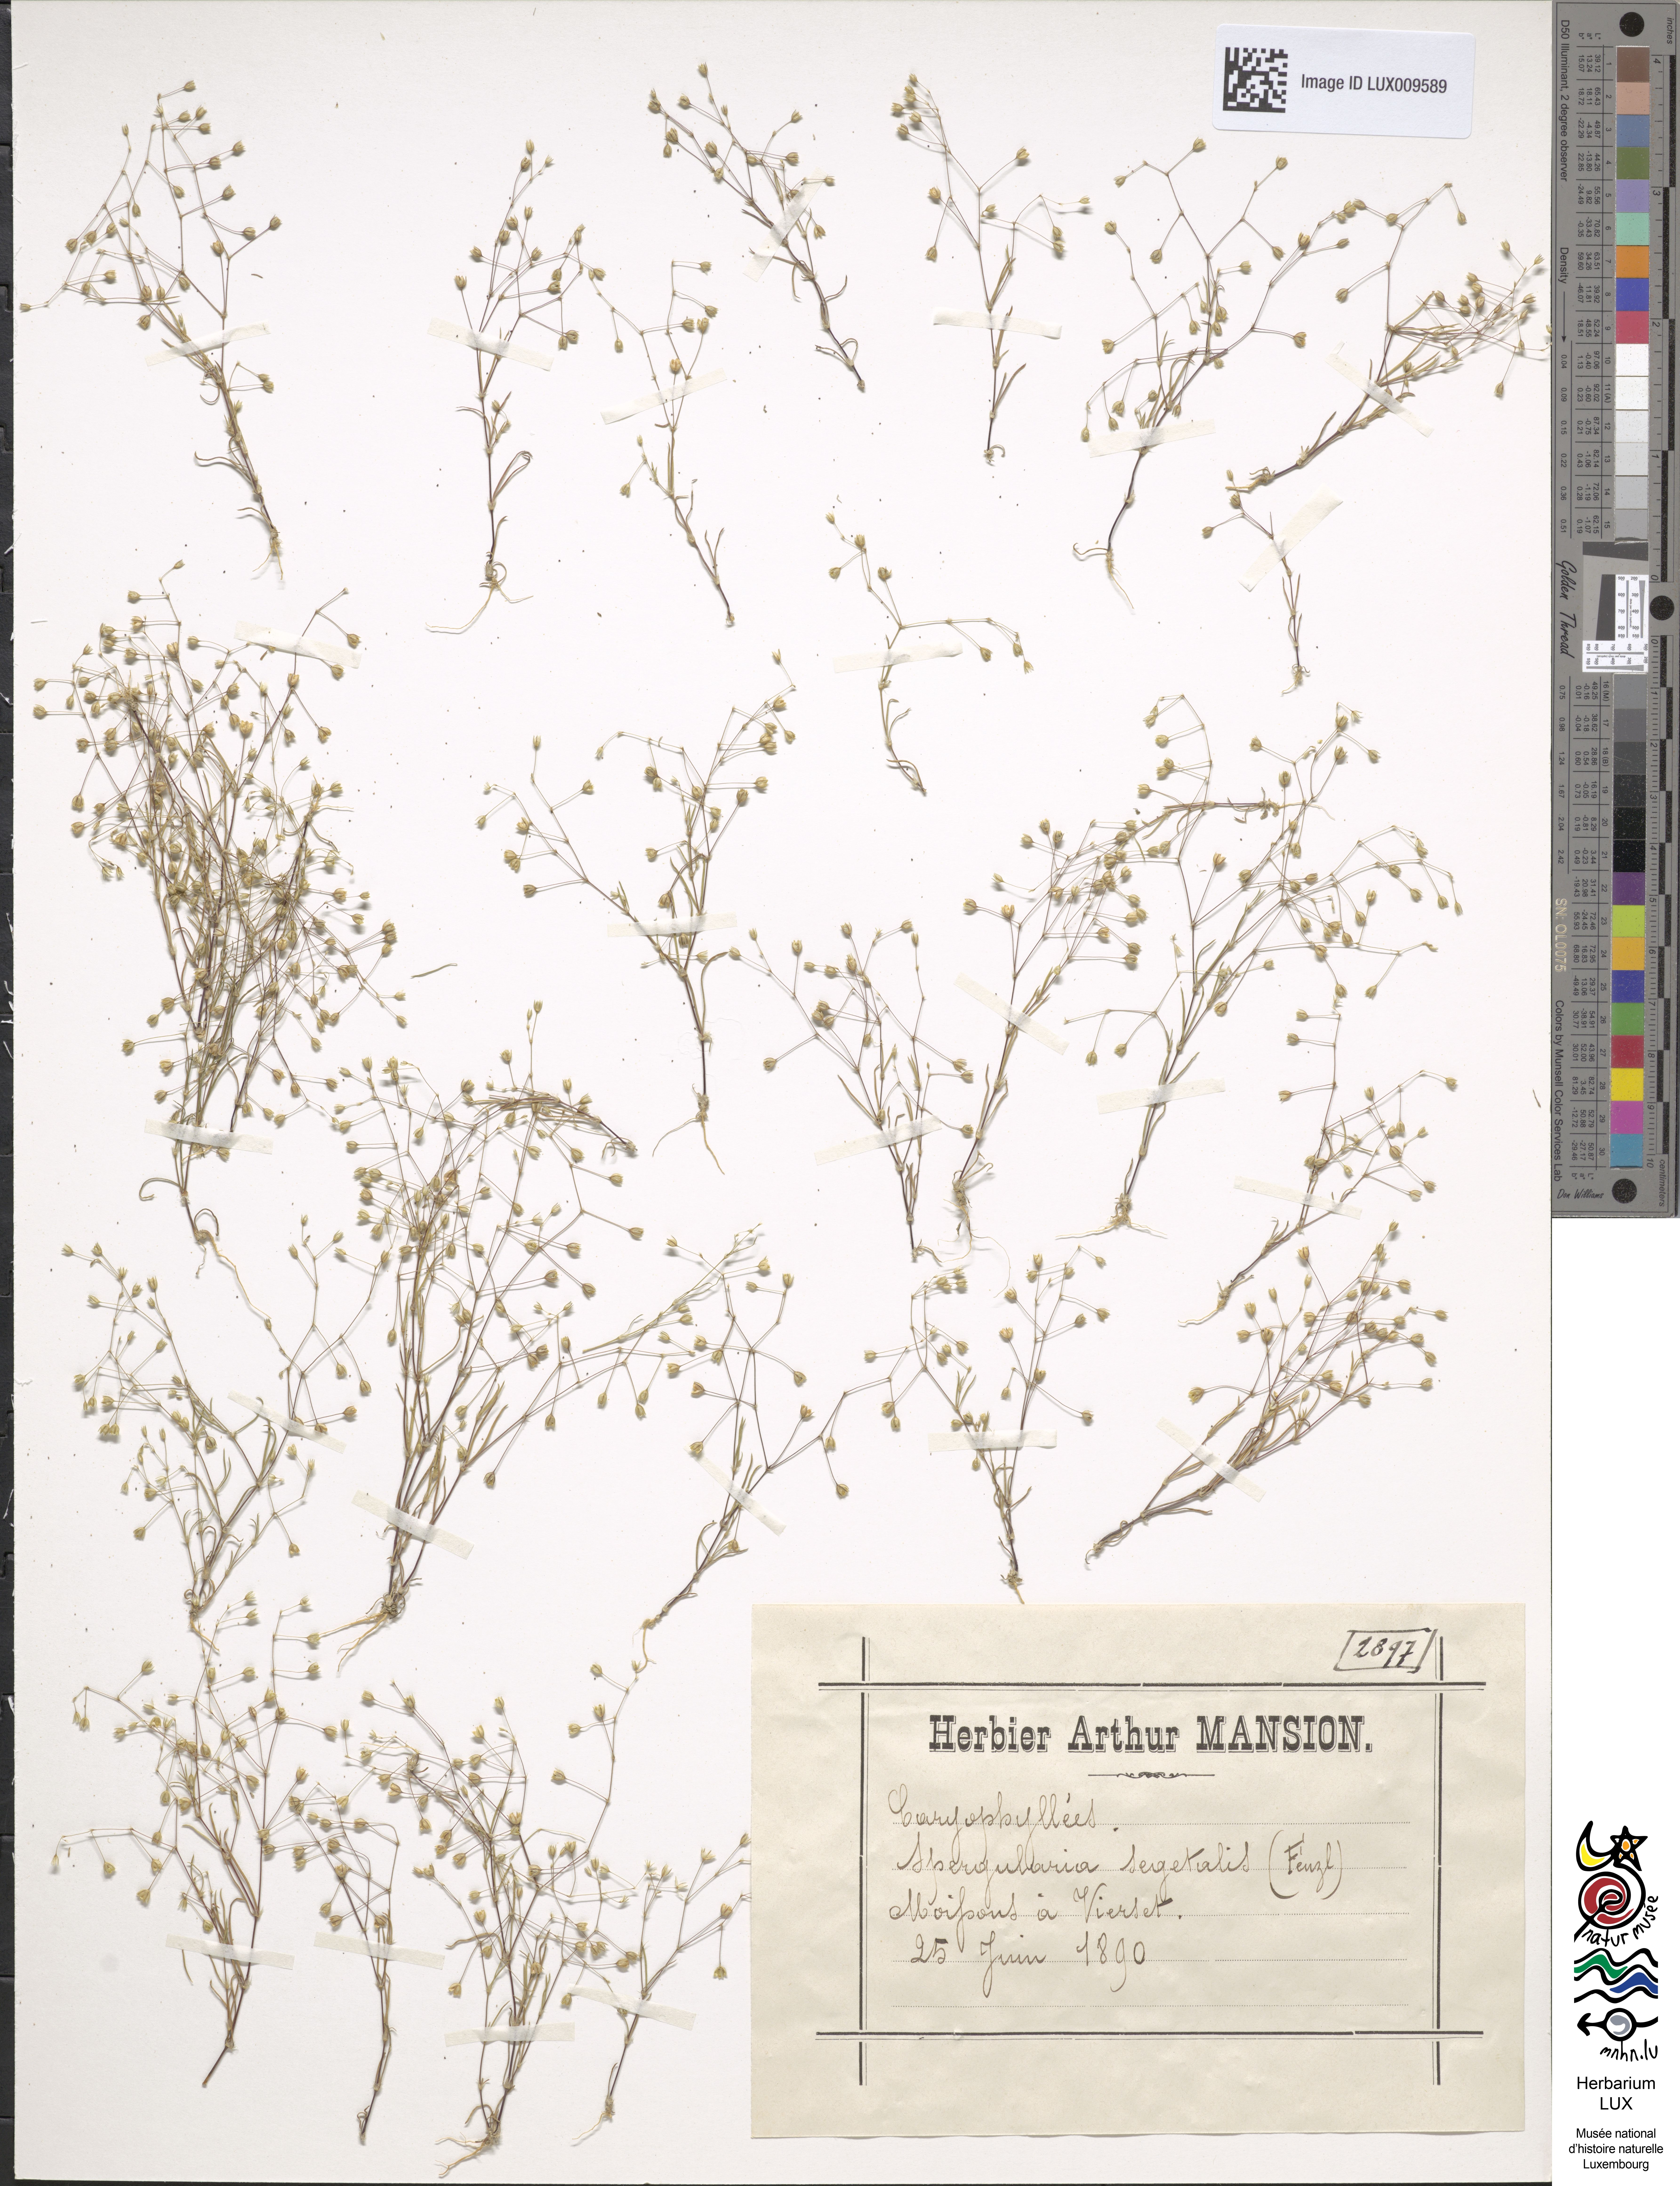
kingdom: Plantae
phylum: Tracheophyta
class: Magnoliopsida
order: Caryophyllales
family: Caryophyllaceae
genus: Spergularia
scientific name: Spergularia segetalis
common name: Corn sand spurrey
